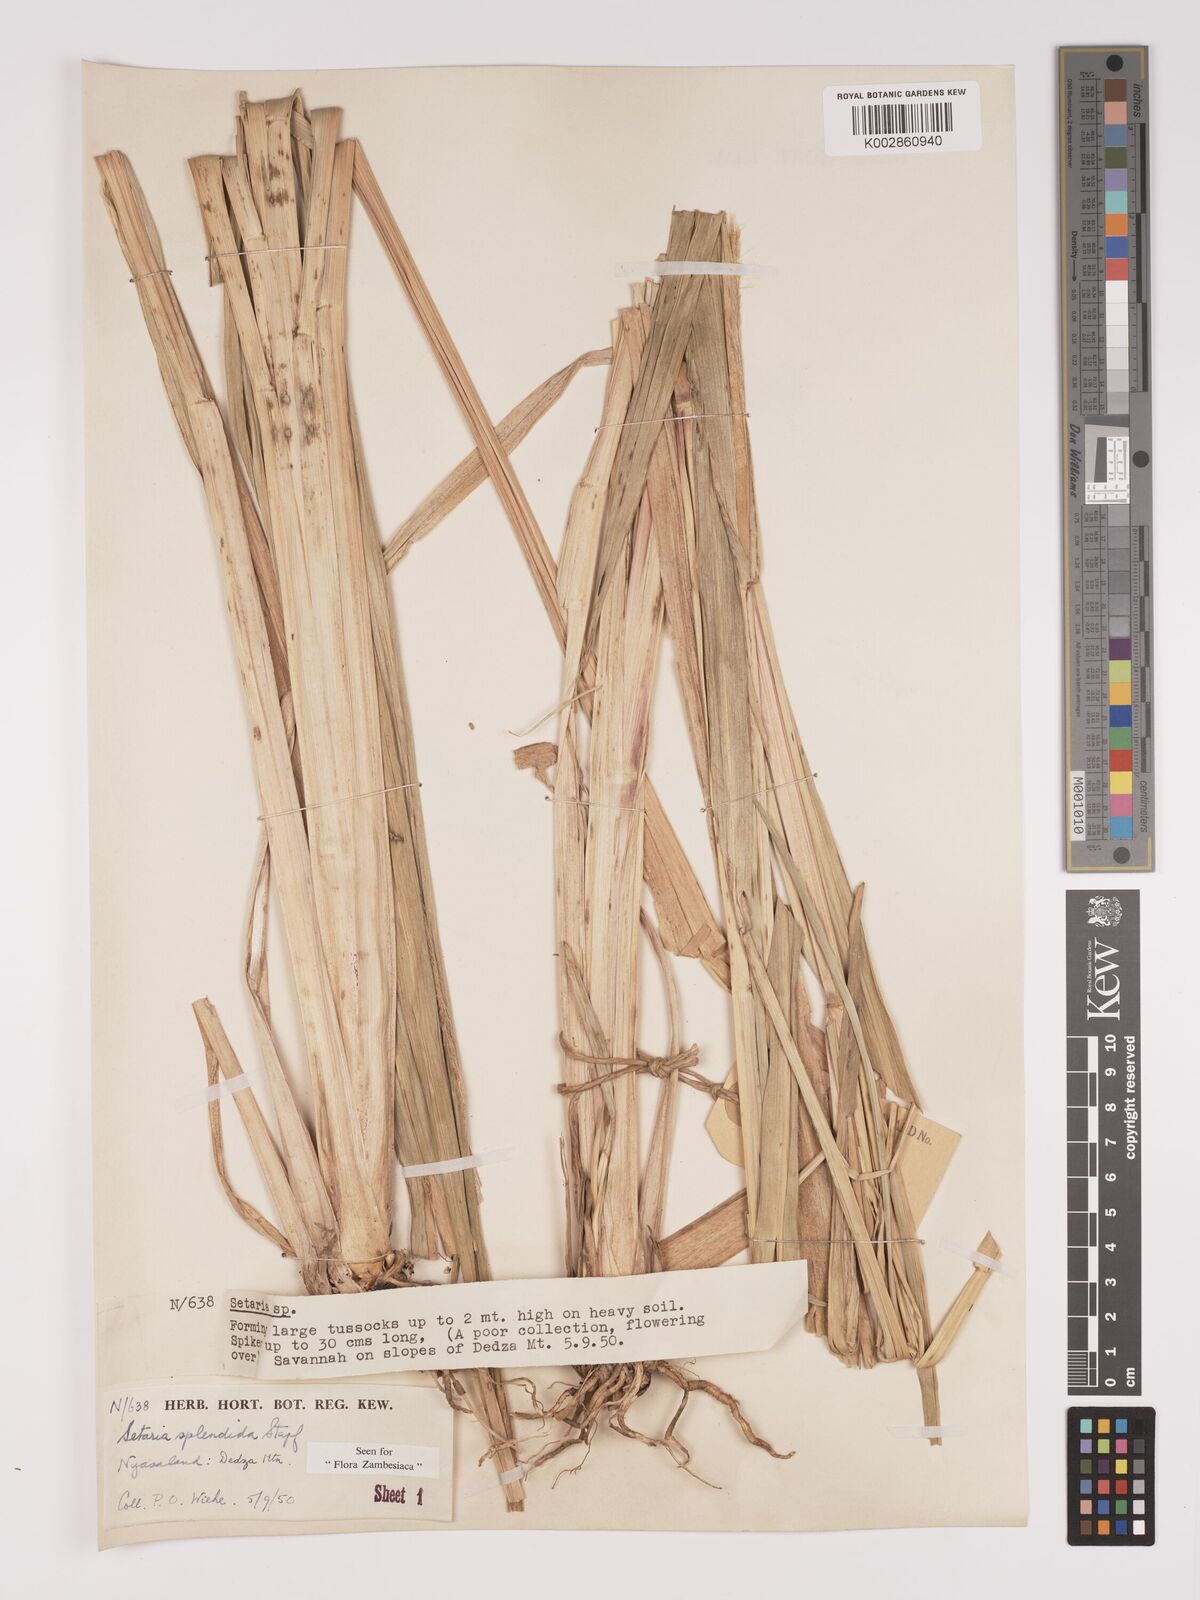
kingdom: Plantae
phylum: Tracheophyta
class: Liliopsida
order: Poales
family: Poaceae
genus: Setaria
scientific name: Setaria sphacelata
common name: African bristlegrass
